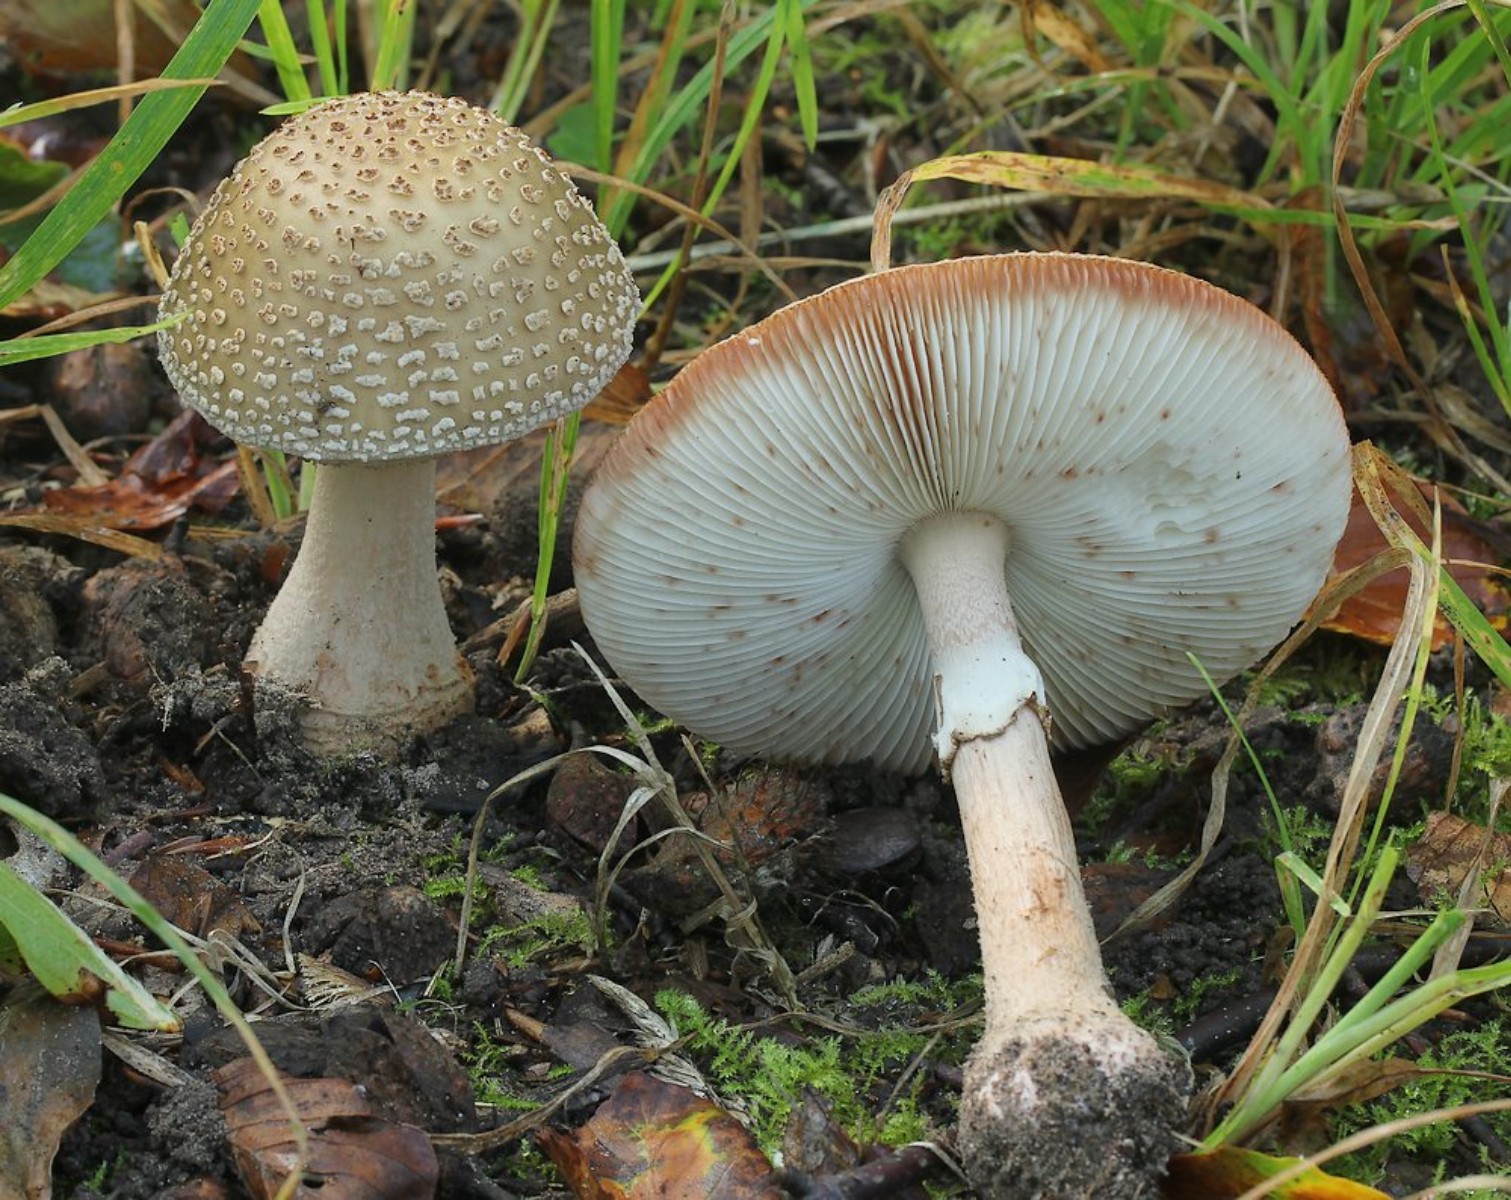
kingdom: Fungi
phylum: Basidiomycota
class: Agaricomycetes
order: Agaricales
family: Amanitaceae
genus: Amanita
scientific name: Amanita rubescens
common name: rødmende fluesvamp
